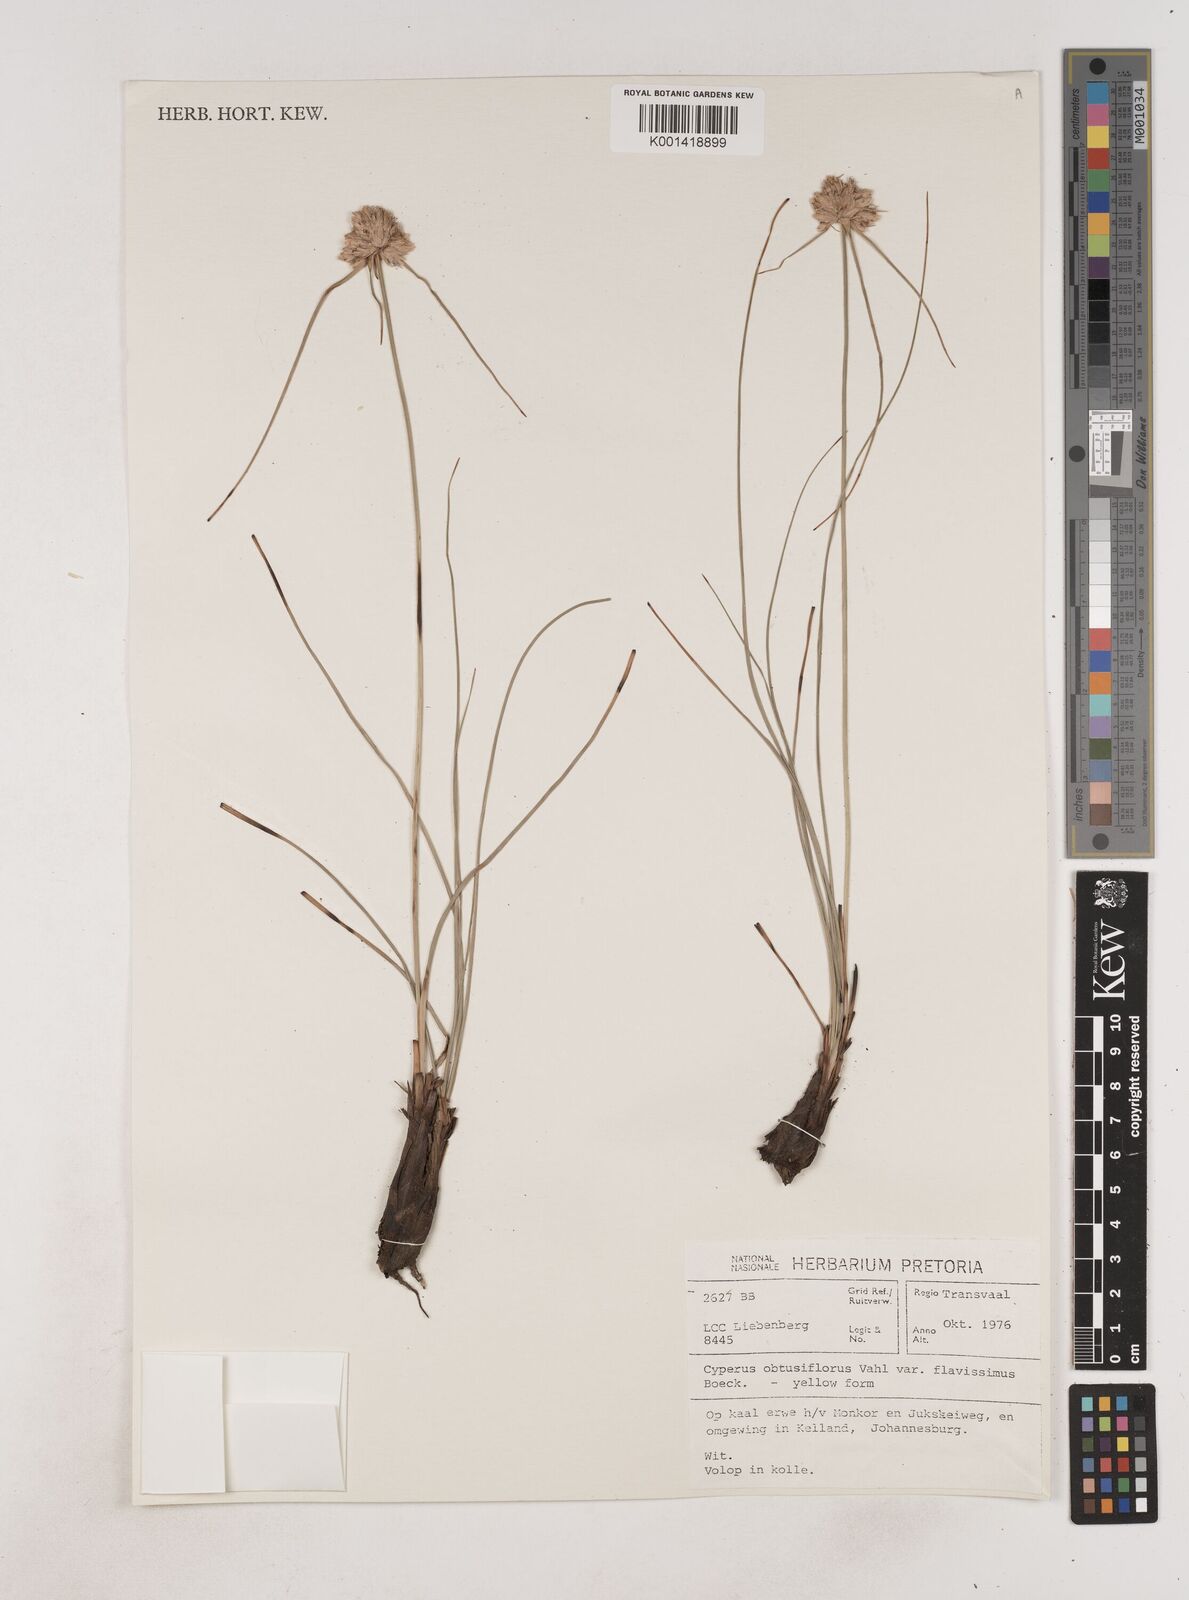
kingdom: Plantae
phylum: Tracheophyta
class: Liliopsida
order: Poales
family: Cyperaceae
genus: Cyperus
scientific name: Cyperus sphaerocephalus
